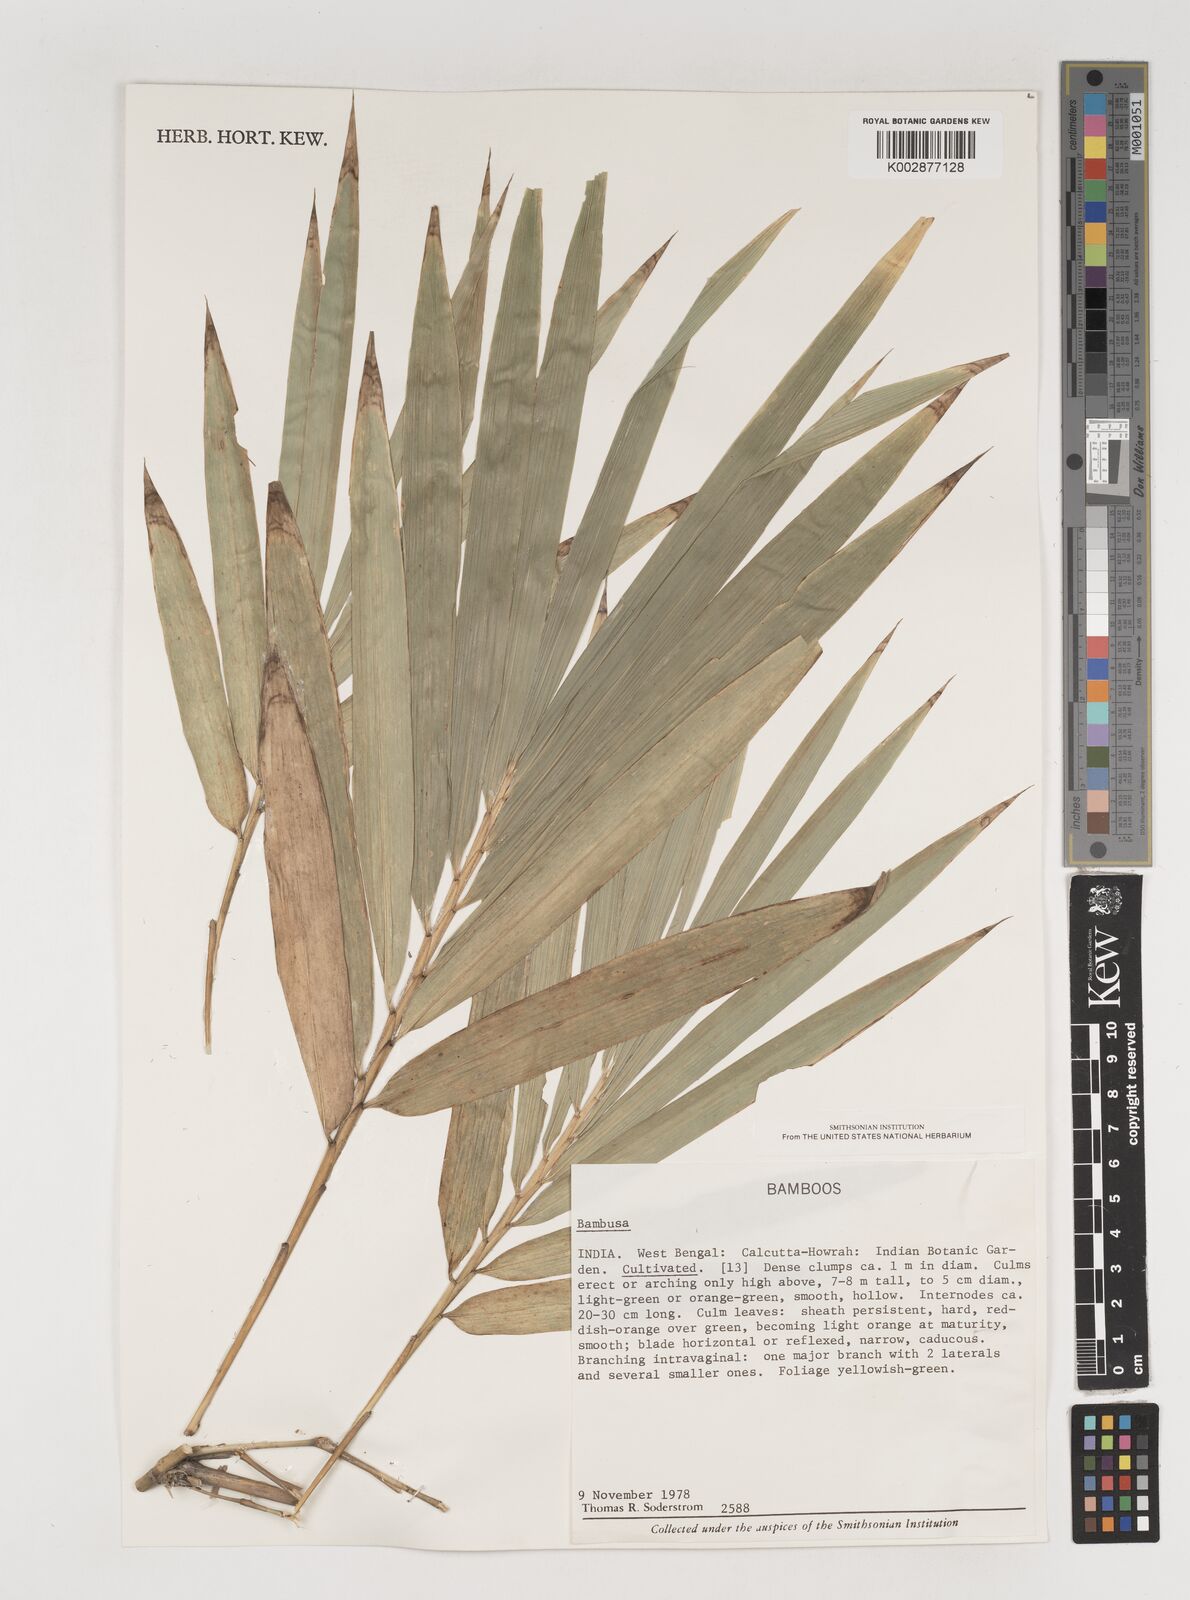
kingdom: Plantae
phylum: Tracheophyta
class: Liliopsida
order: Poales
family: Poaceae
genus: Bambusa
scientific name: Bambusa
